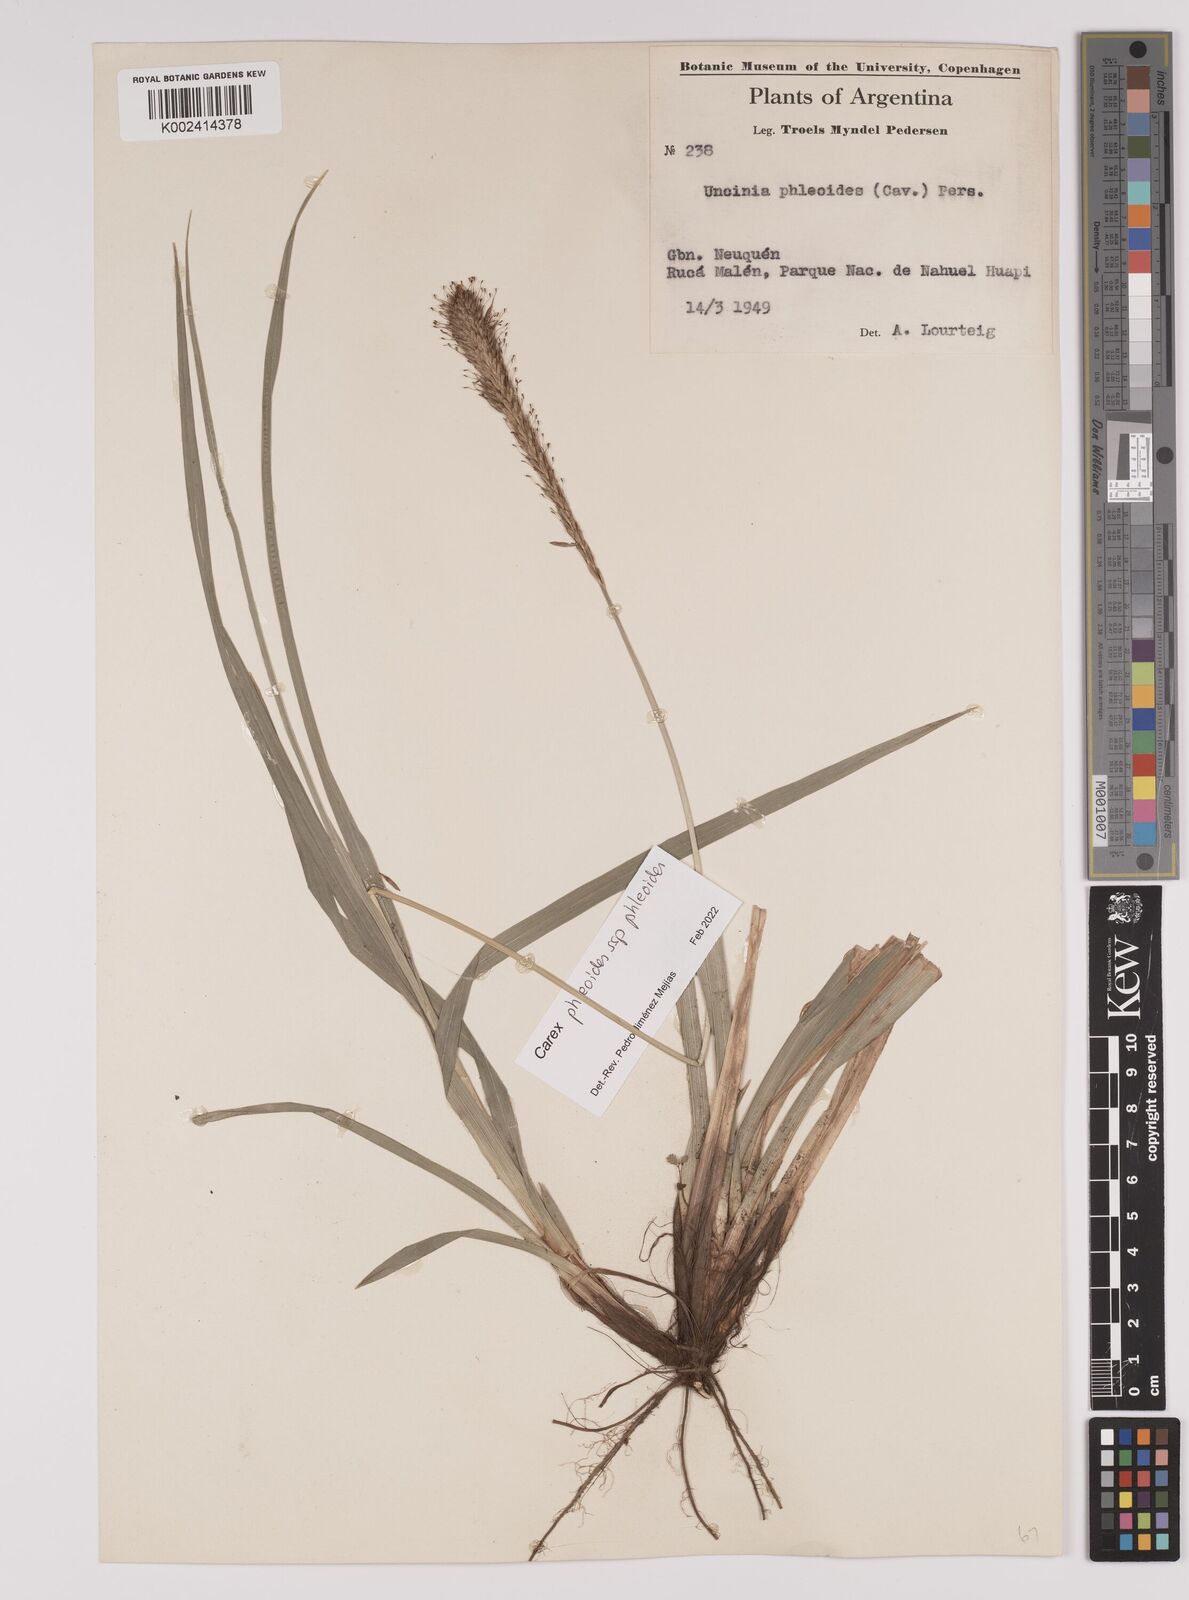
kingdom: Plantae
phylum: Tracheophyta
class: Liliopsida
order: Poales
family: Cyperaceae
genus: Carex
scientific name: Carex phleoides
